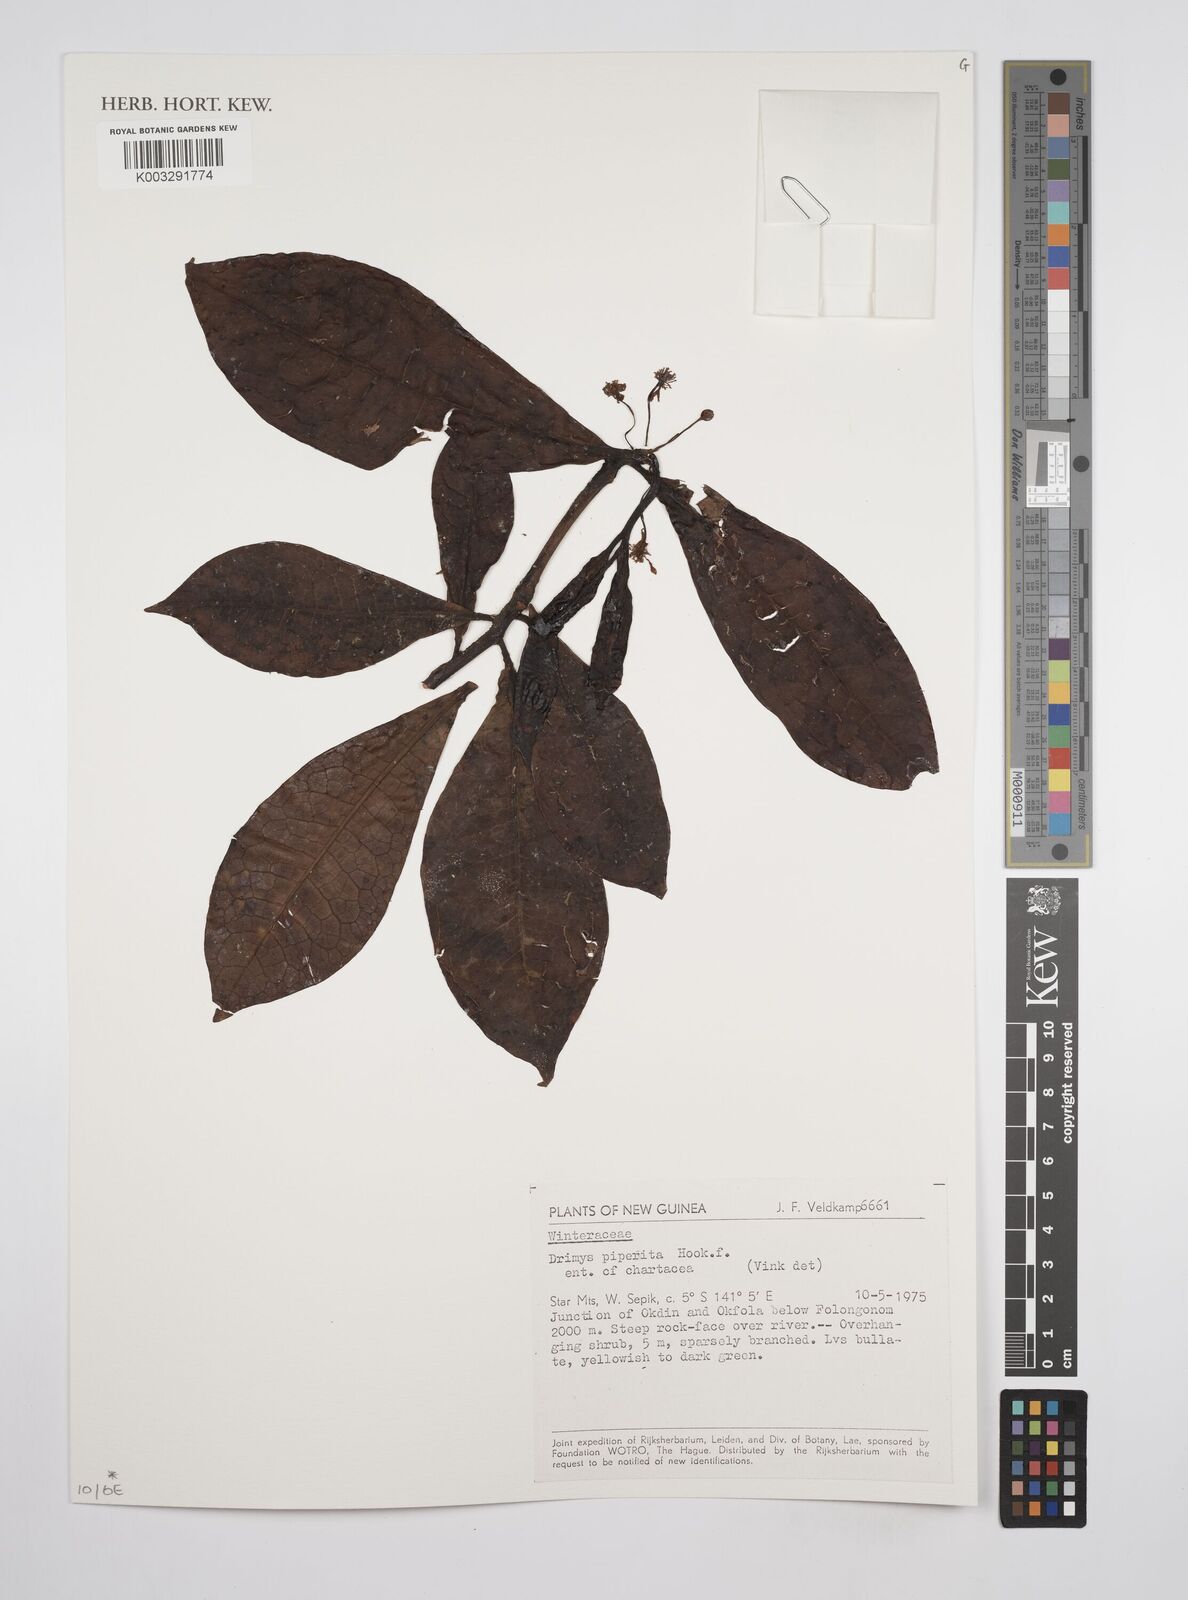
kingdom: Plantae
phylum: Tracheophyta
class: Magnoliopsida
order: Canellales
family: Winteraceae
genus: Drimys
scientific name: Drimys piperita
